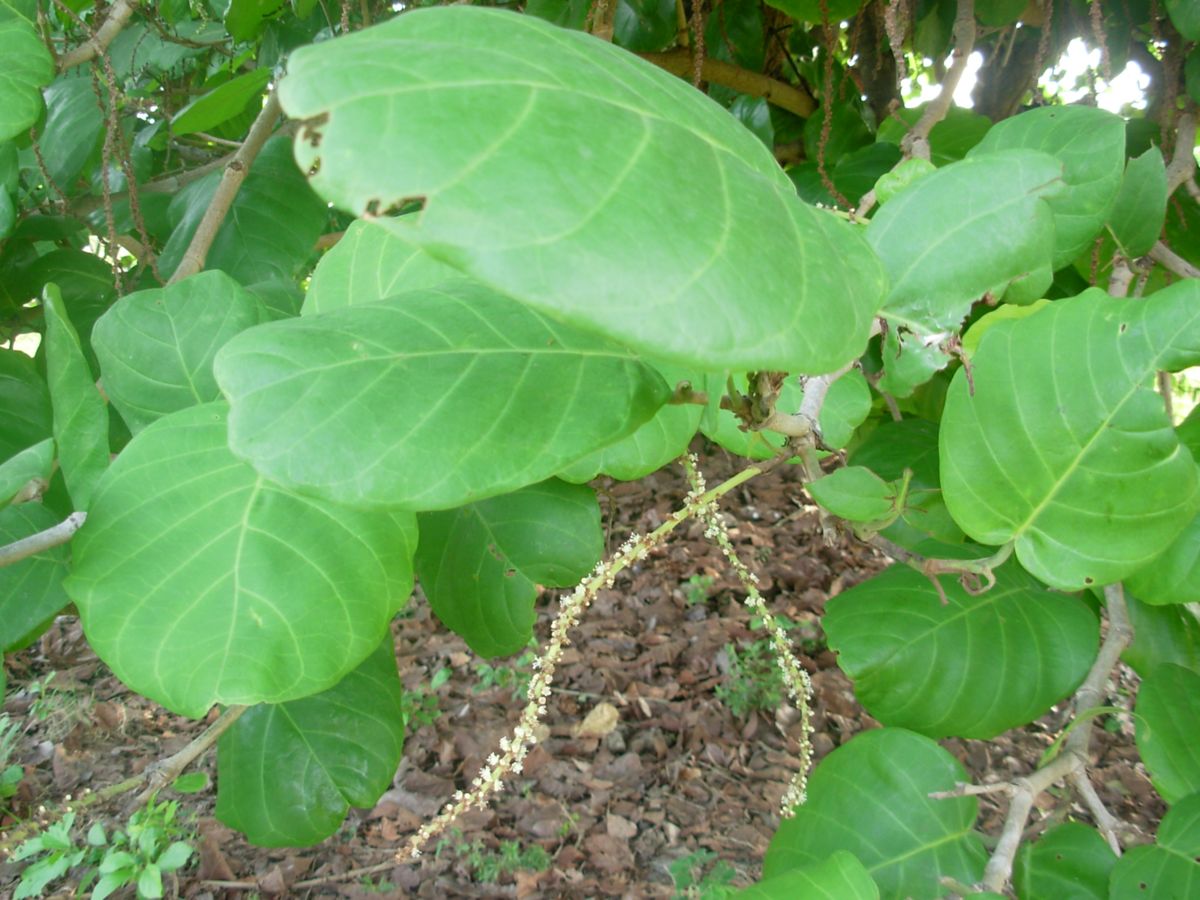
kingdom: Plantae
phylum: Tracheophyta
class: Magnoliopsida
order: Caryophyllales
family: Polygonaceae
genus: Coccoloba
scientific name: Coccoloba caracasana
